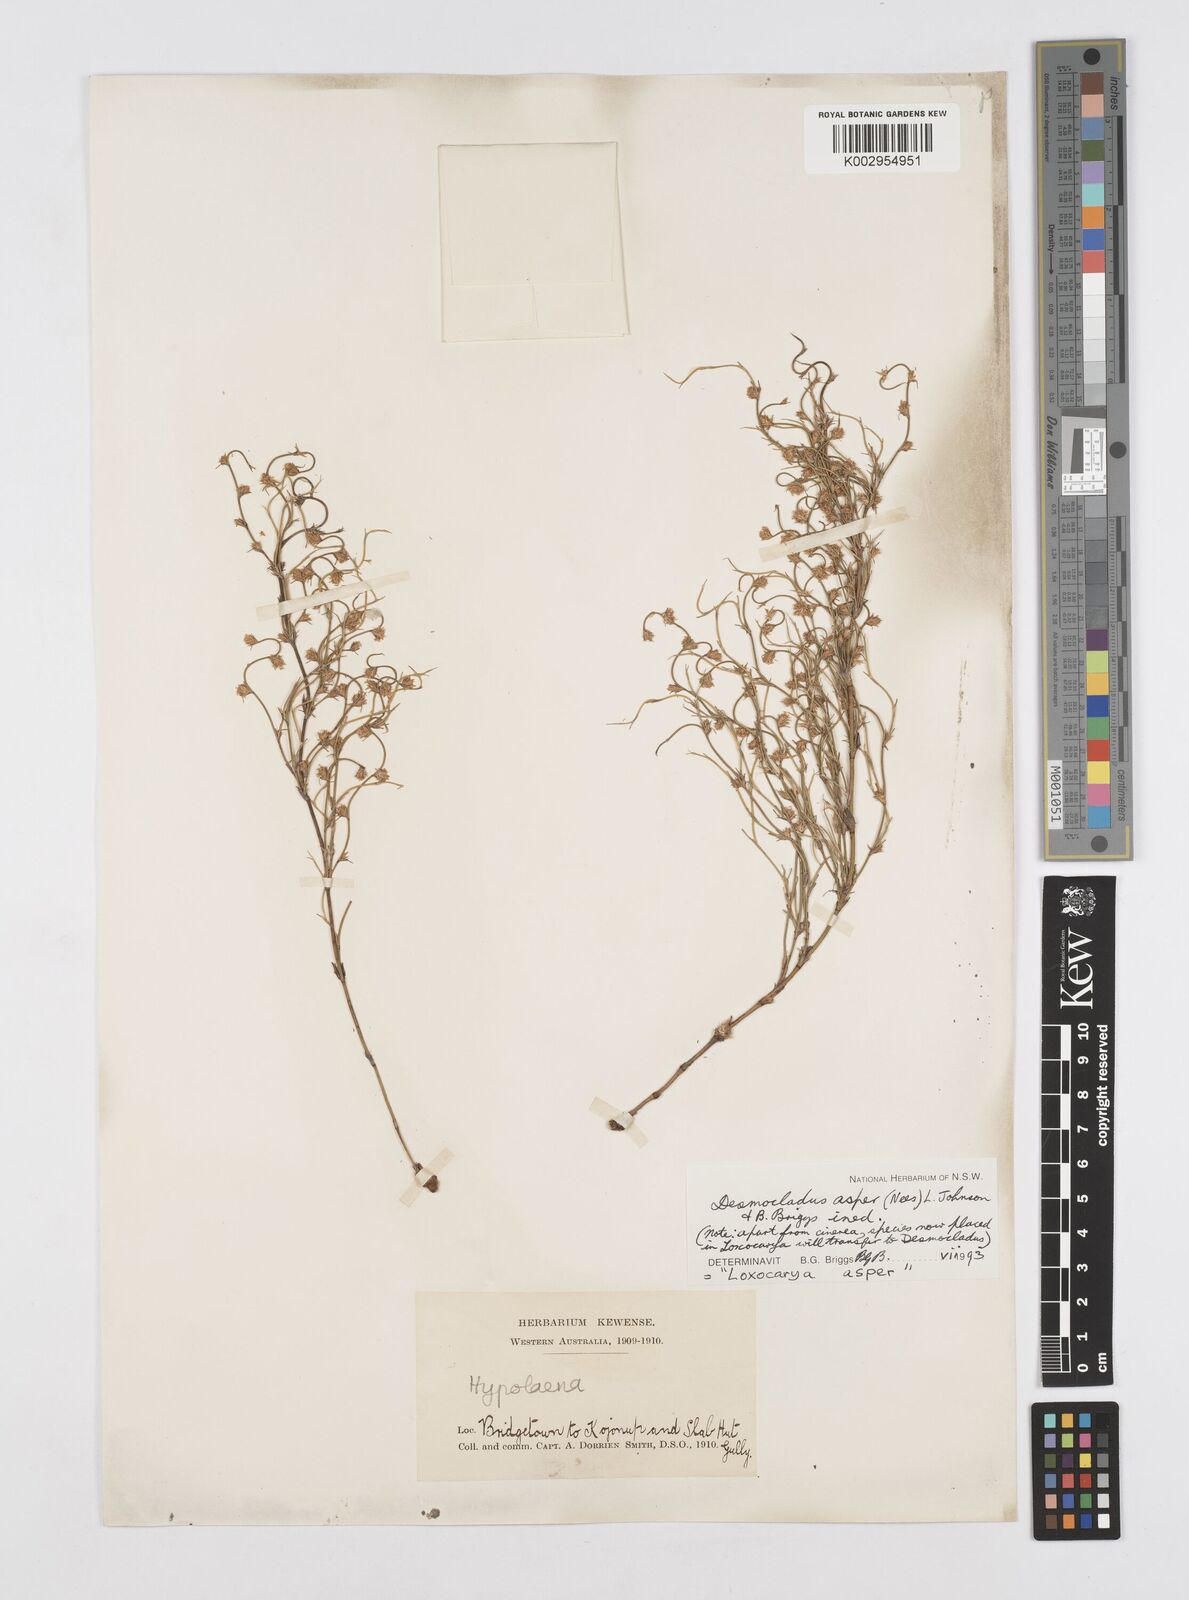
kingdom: Plantae
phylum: Tracheophyta
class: Liliopsida
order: Poales
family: Restionaceae
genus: Desmocladus
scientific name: Desmocladus asper
